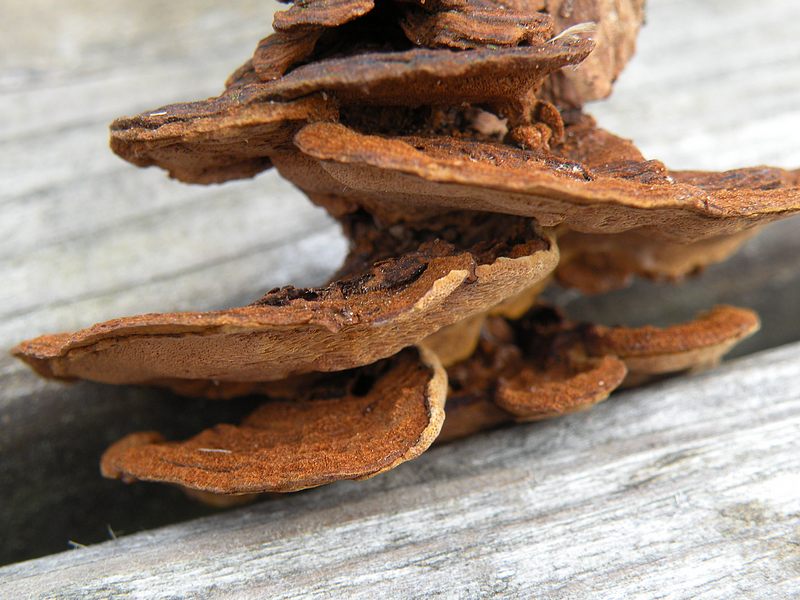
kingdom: Fungi
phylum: Basidiomycota
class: Agaricomycetes
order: Hymenochaetales
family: Hymenochaetaceae
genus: Phellinopsis
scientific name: Phellinopsis conchata
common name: pile-ildporesvamp
